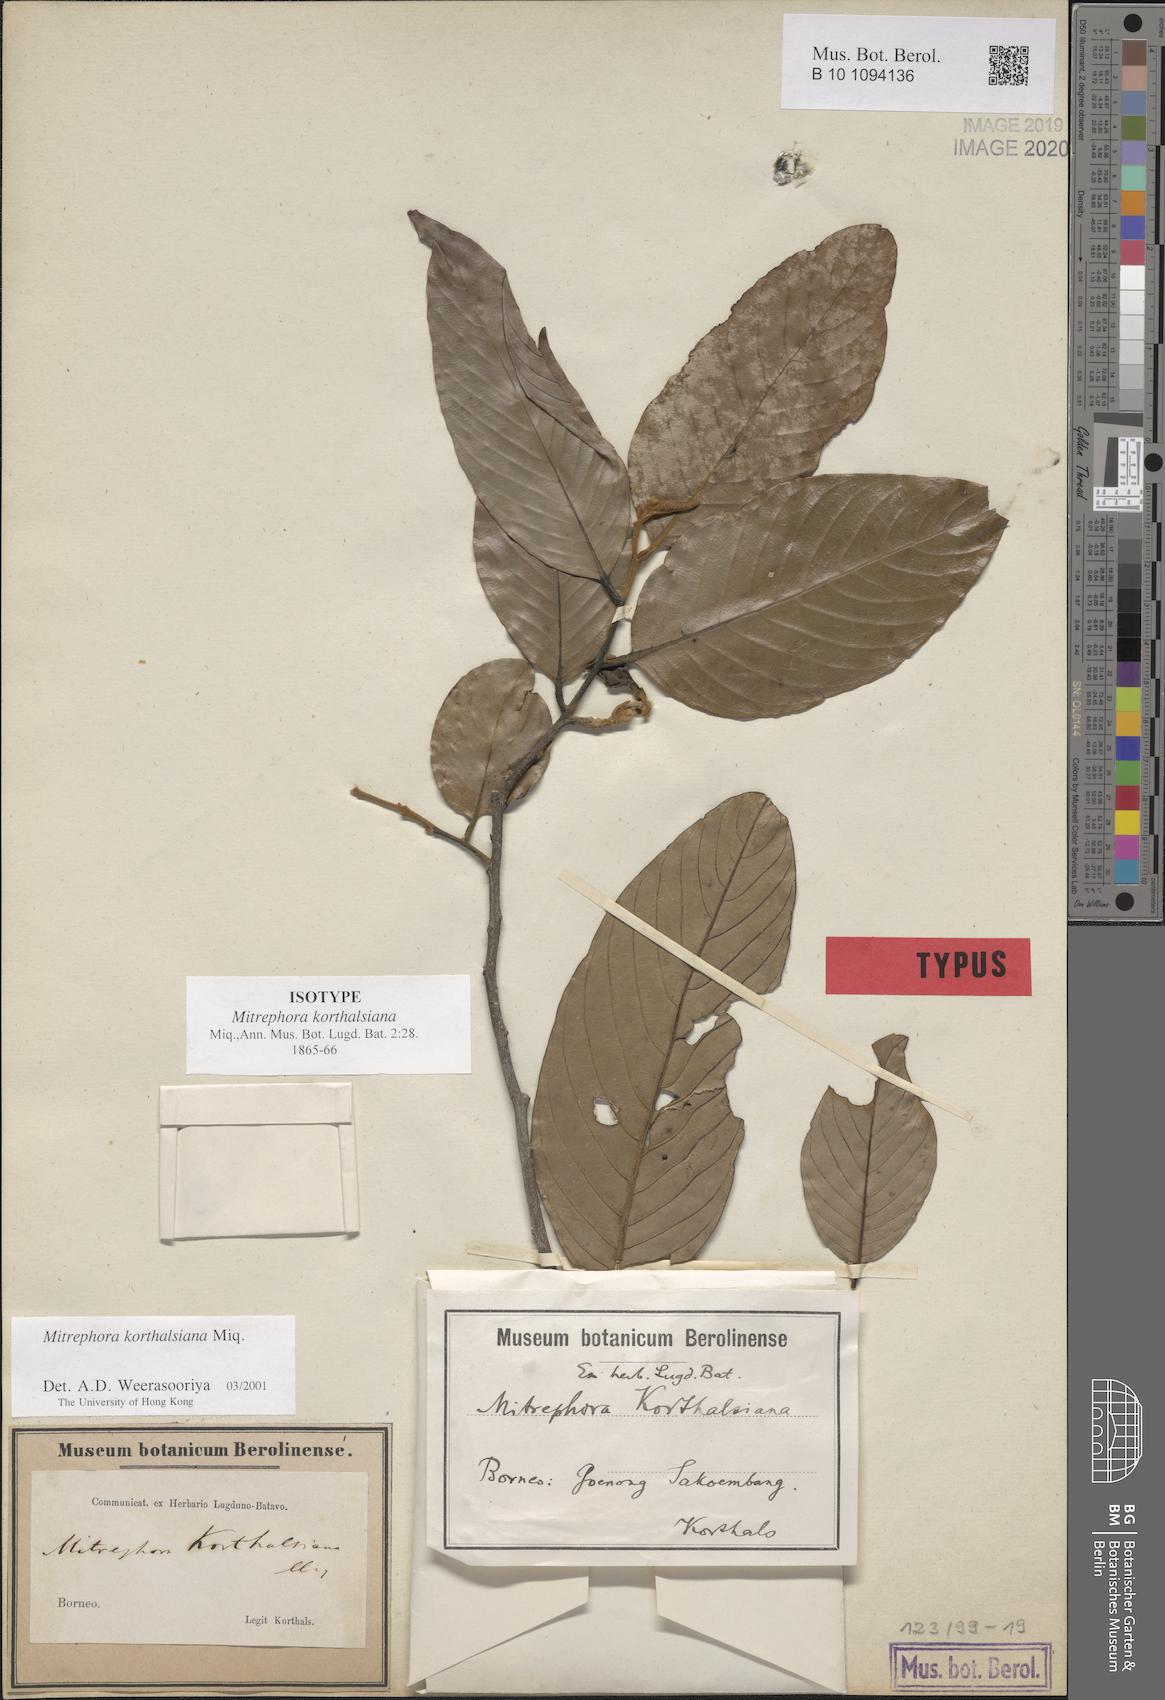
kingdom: Plantae
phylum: Tracheophyta
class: Magnoliopsida
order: Magnoliales
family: Annonaceae
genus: Mitrephora
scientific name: Mitrephora korthalsiana
